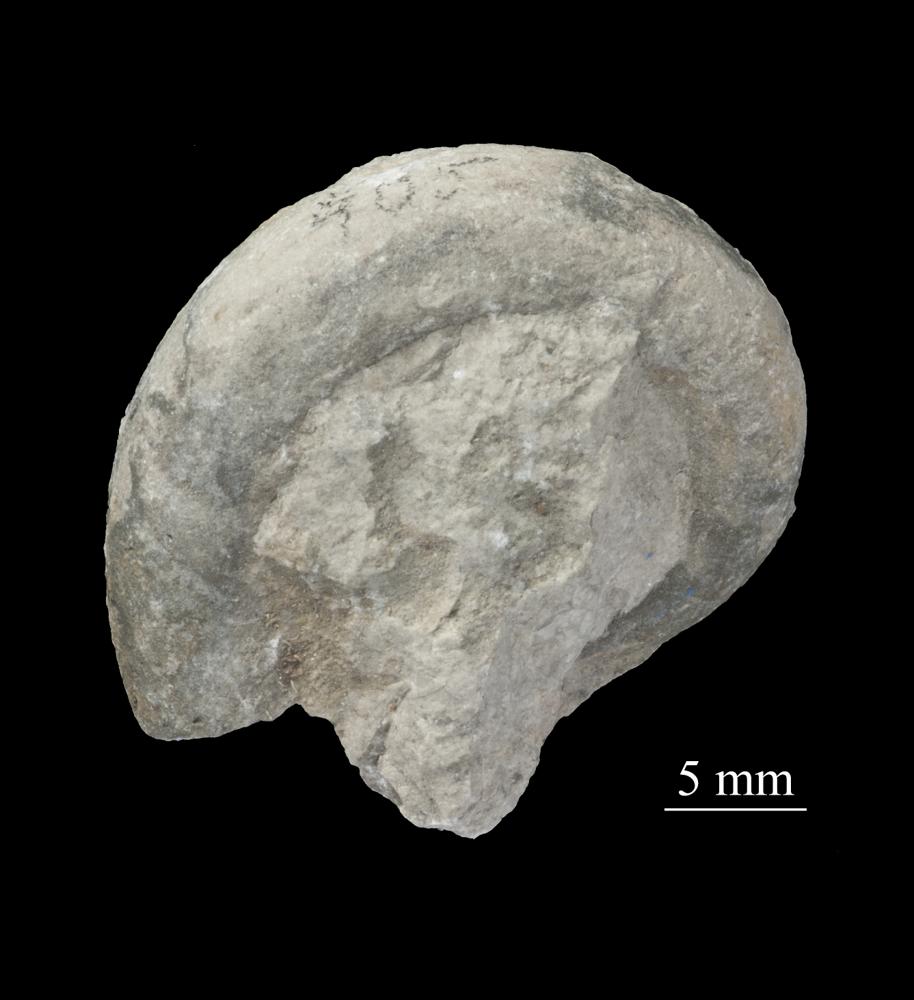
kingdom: Animalia
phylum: Mollusca
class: Gastropoda
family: Lesueurillidae
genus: Mestoronema
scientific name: Mestoronema Euomphalus marginalis
